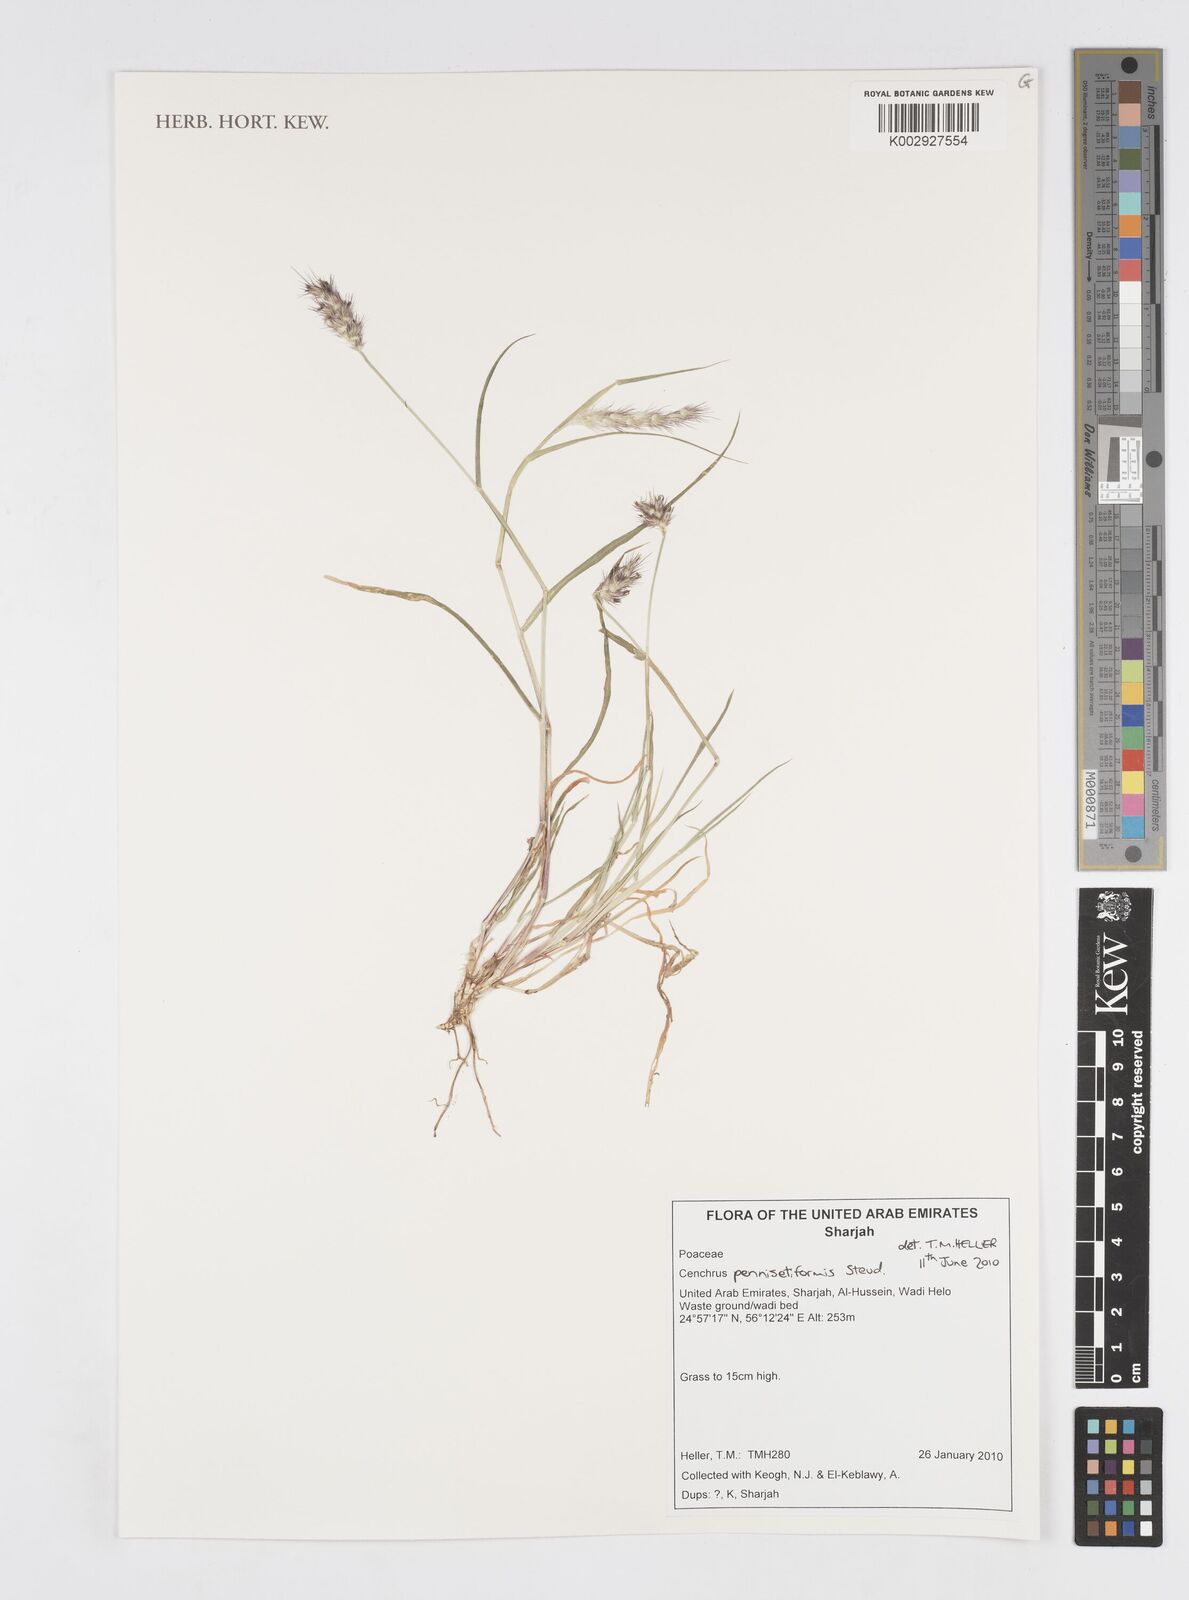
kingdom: Plantae
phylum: Tracheophyta
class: Liliopsida
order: Poales
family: Poaceae
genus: Cenchrus
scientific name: Cenchrus pennisetiformis
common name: Cloncurry
